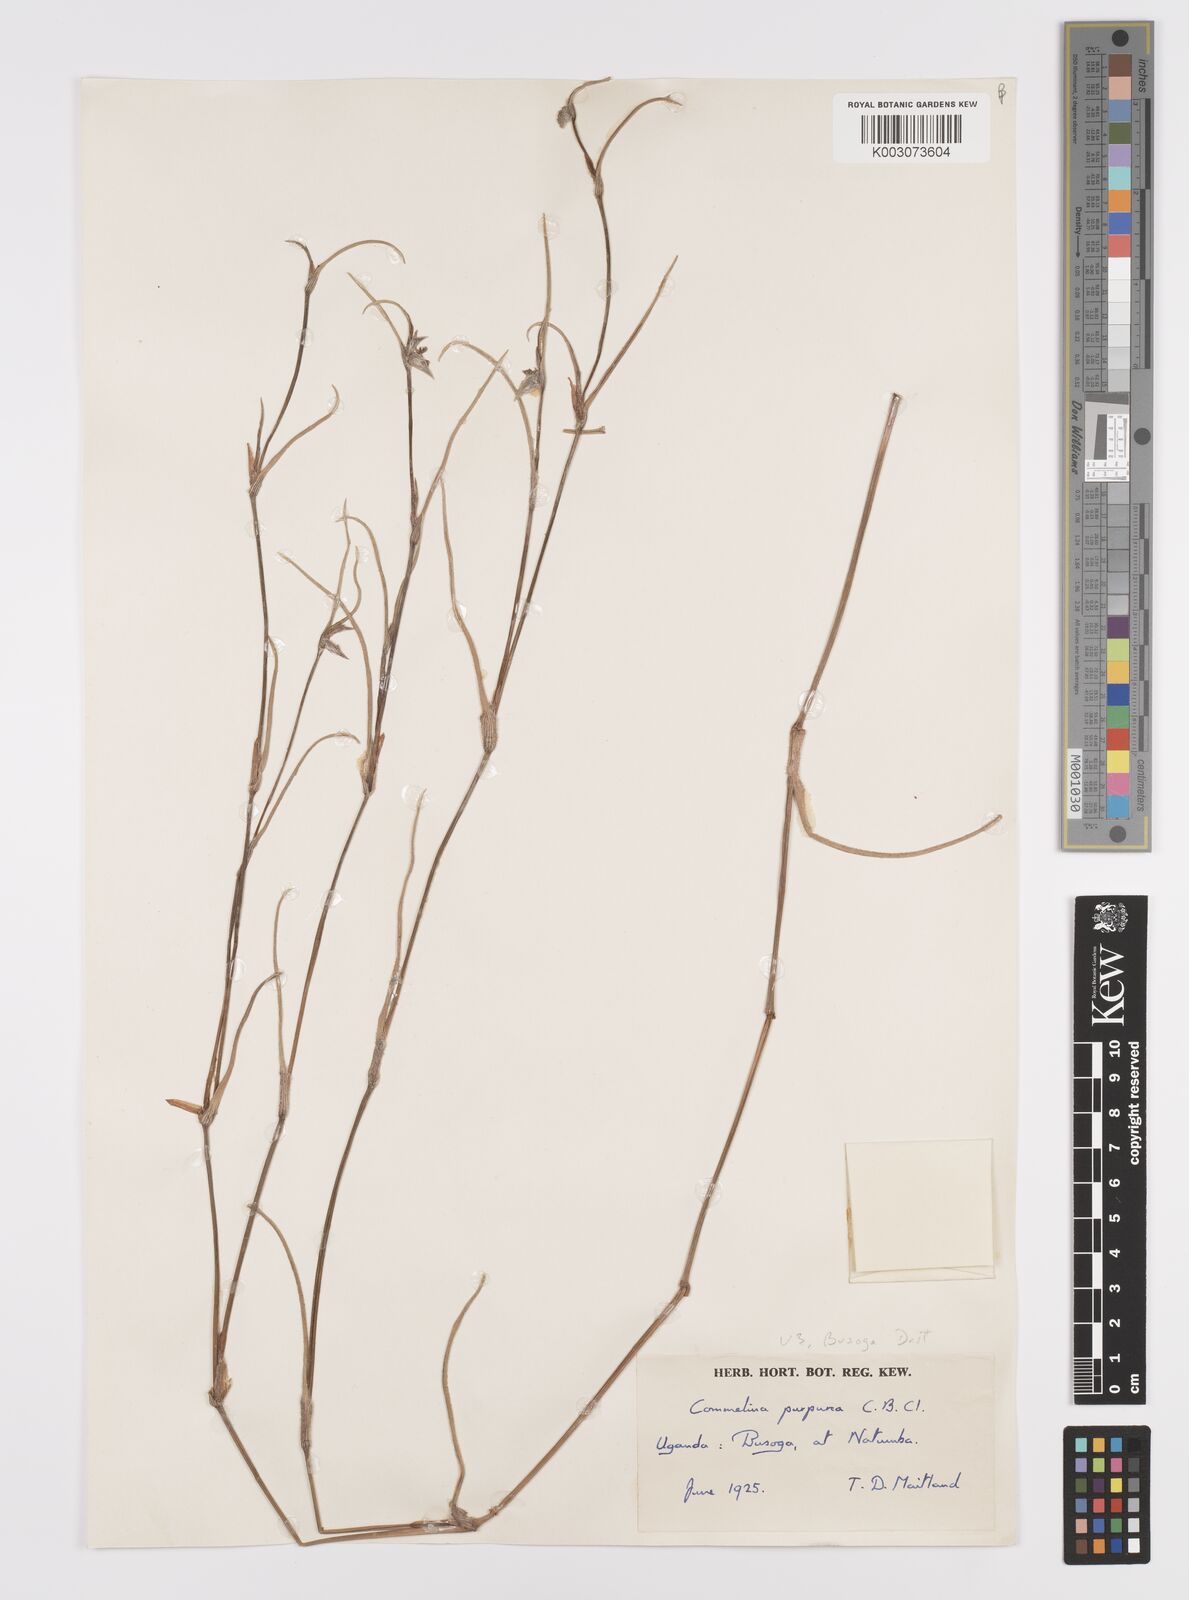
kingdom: Plantae
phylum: Tracheophyta
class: Liliopsida
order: Commelinales
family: Commelinaceae
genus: Commelina
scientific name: Commelina purpurea
